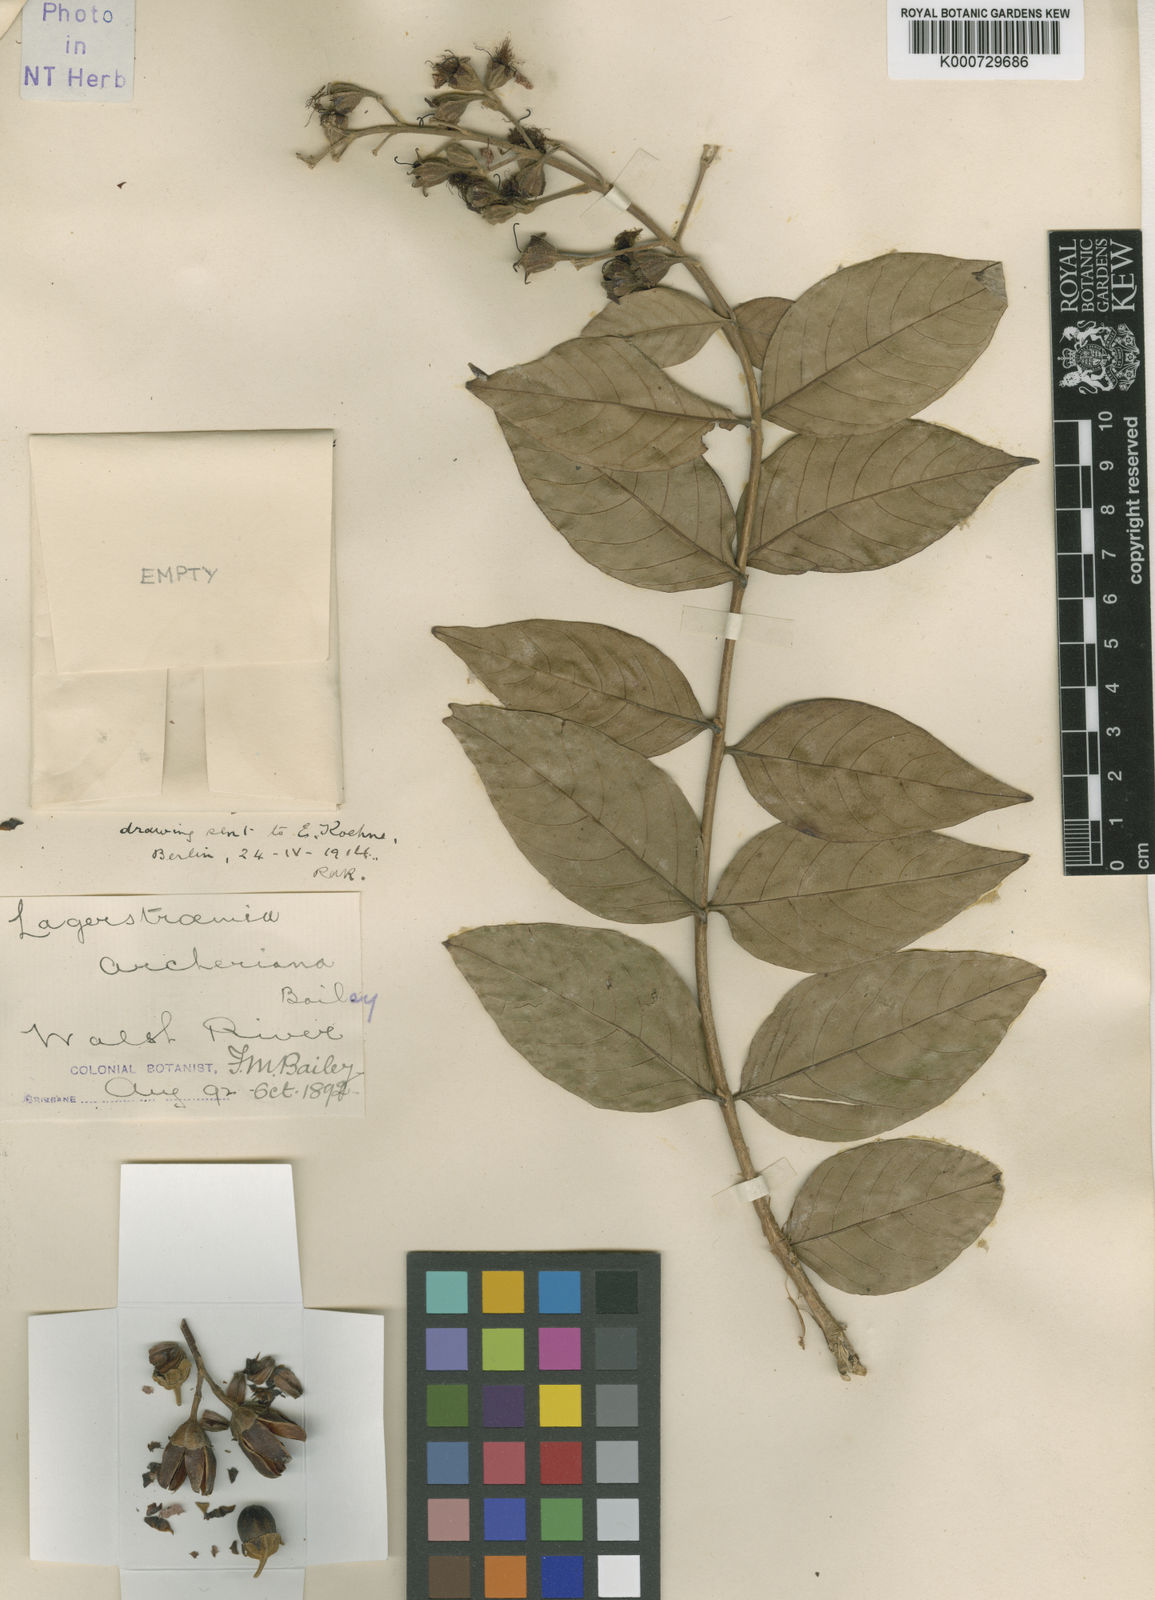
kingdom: Plantae
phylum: Tracheophyta
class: Magnoliopsida
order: Myrtales
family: Lythraceae
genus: Lagerstroemia
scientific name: Lagerstroemia engleriana
